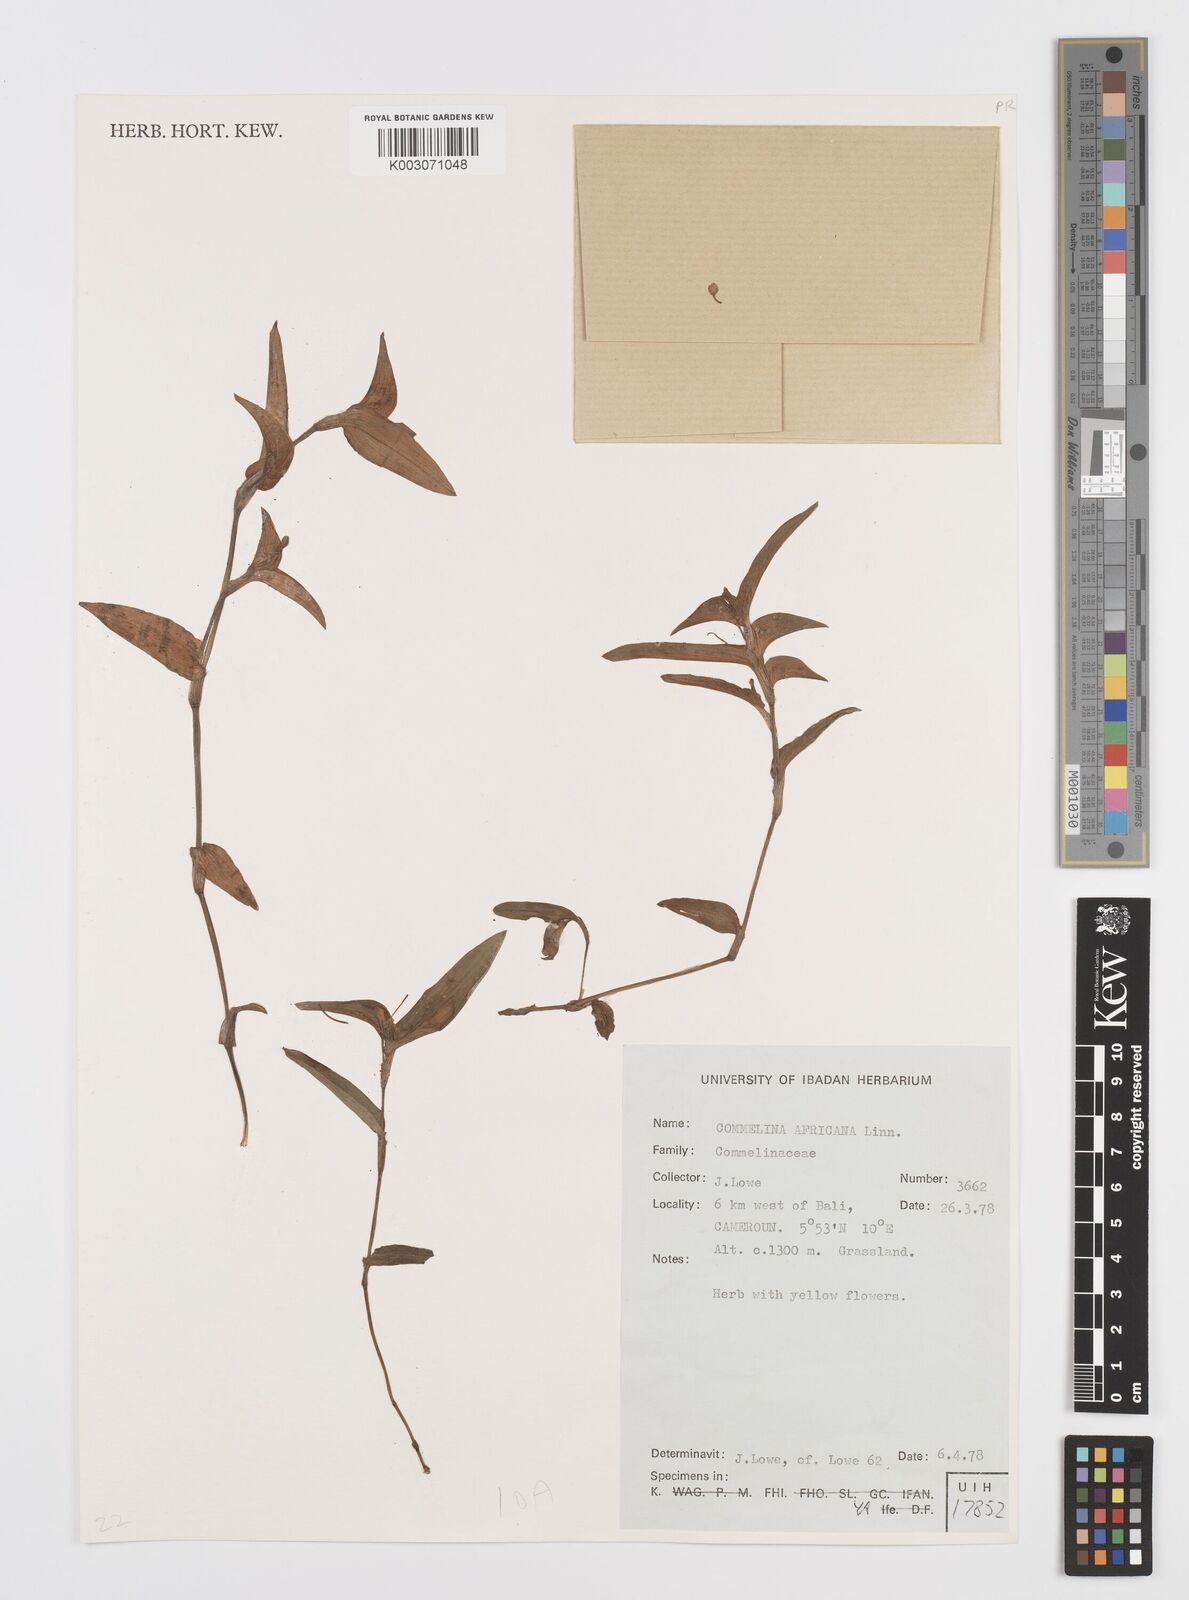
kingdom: Plantae
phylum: Tracheophyta
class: Liliopsida
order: Commelinales
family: Commelinaceae
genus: Commelina
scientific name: Commelina africana
